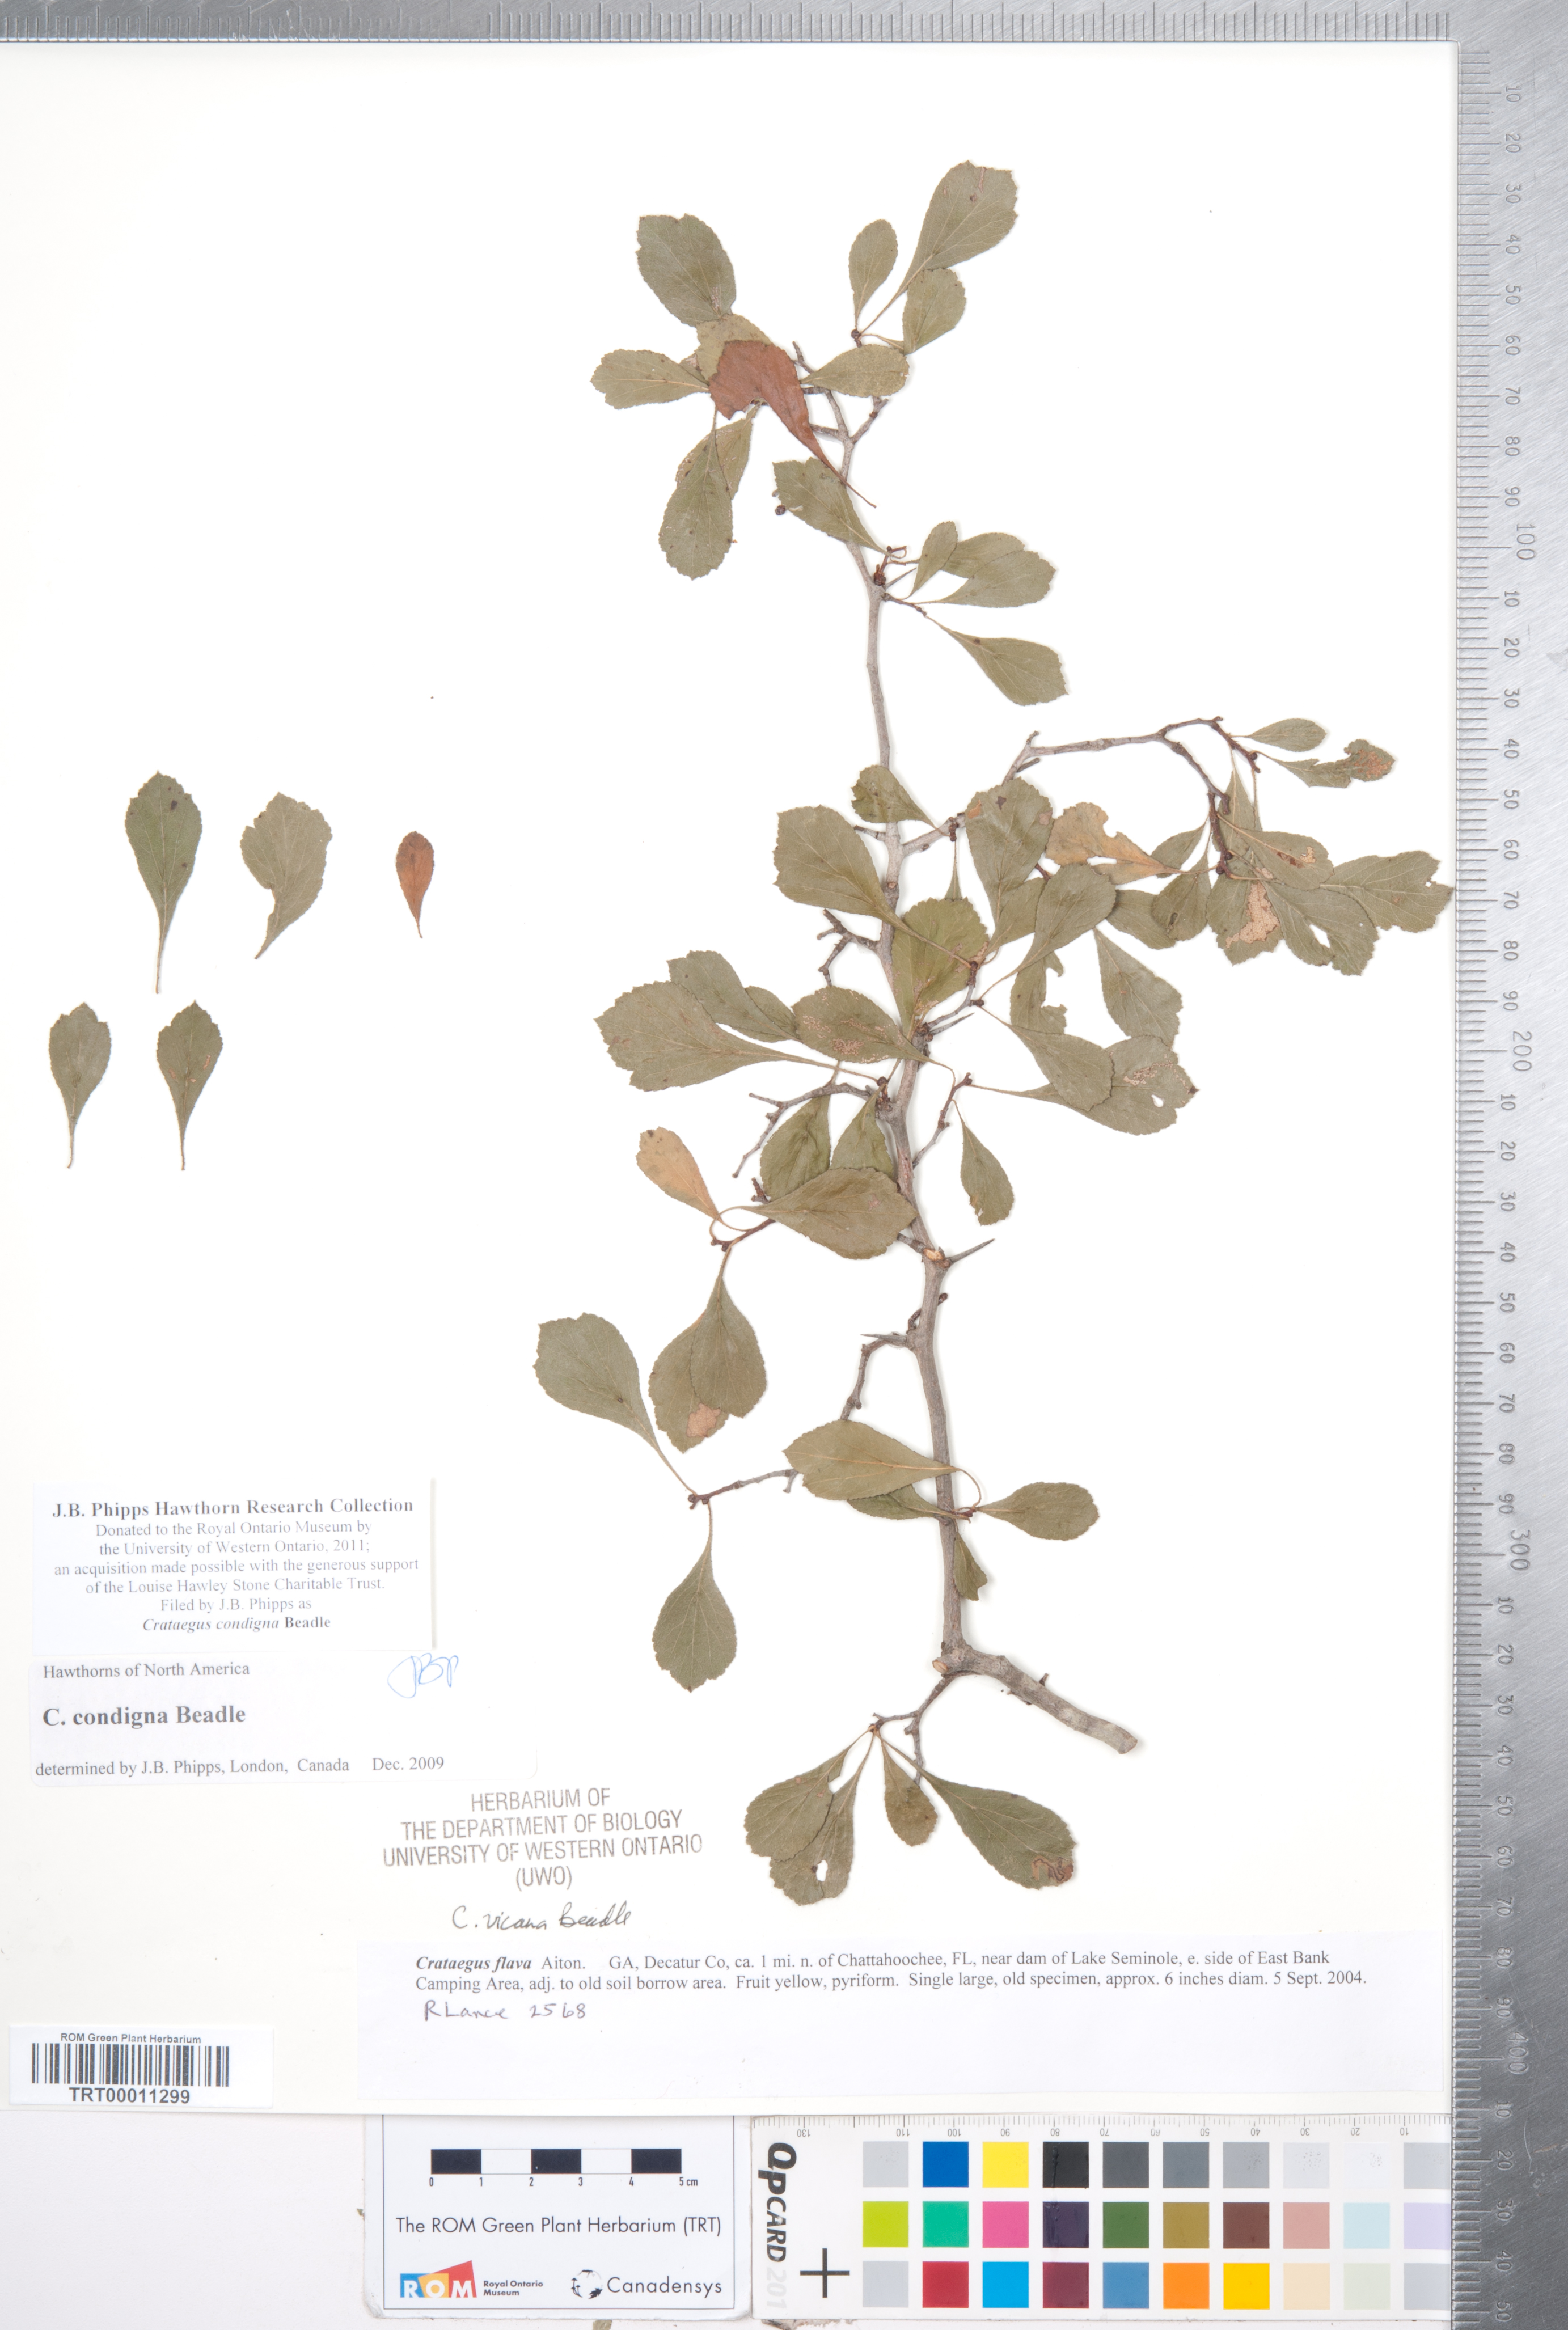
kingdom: Plantae
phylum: Tracheophyta
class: Magnoliopsida
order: Rosales
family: Rosaceae
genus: Crataegus
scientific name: Crataegus condigna
